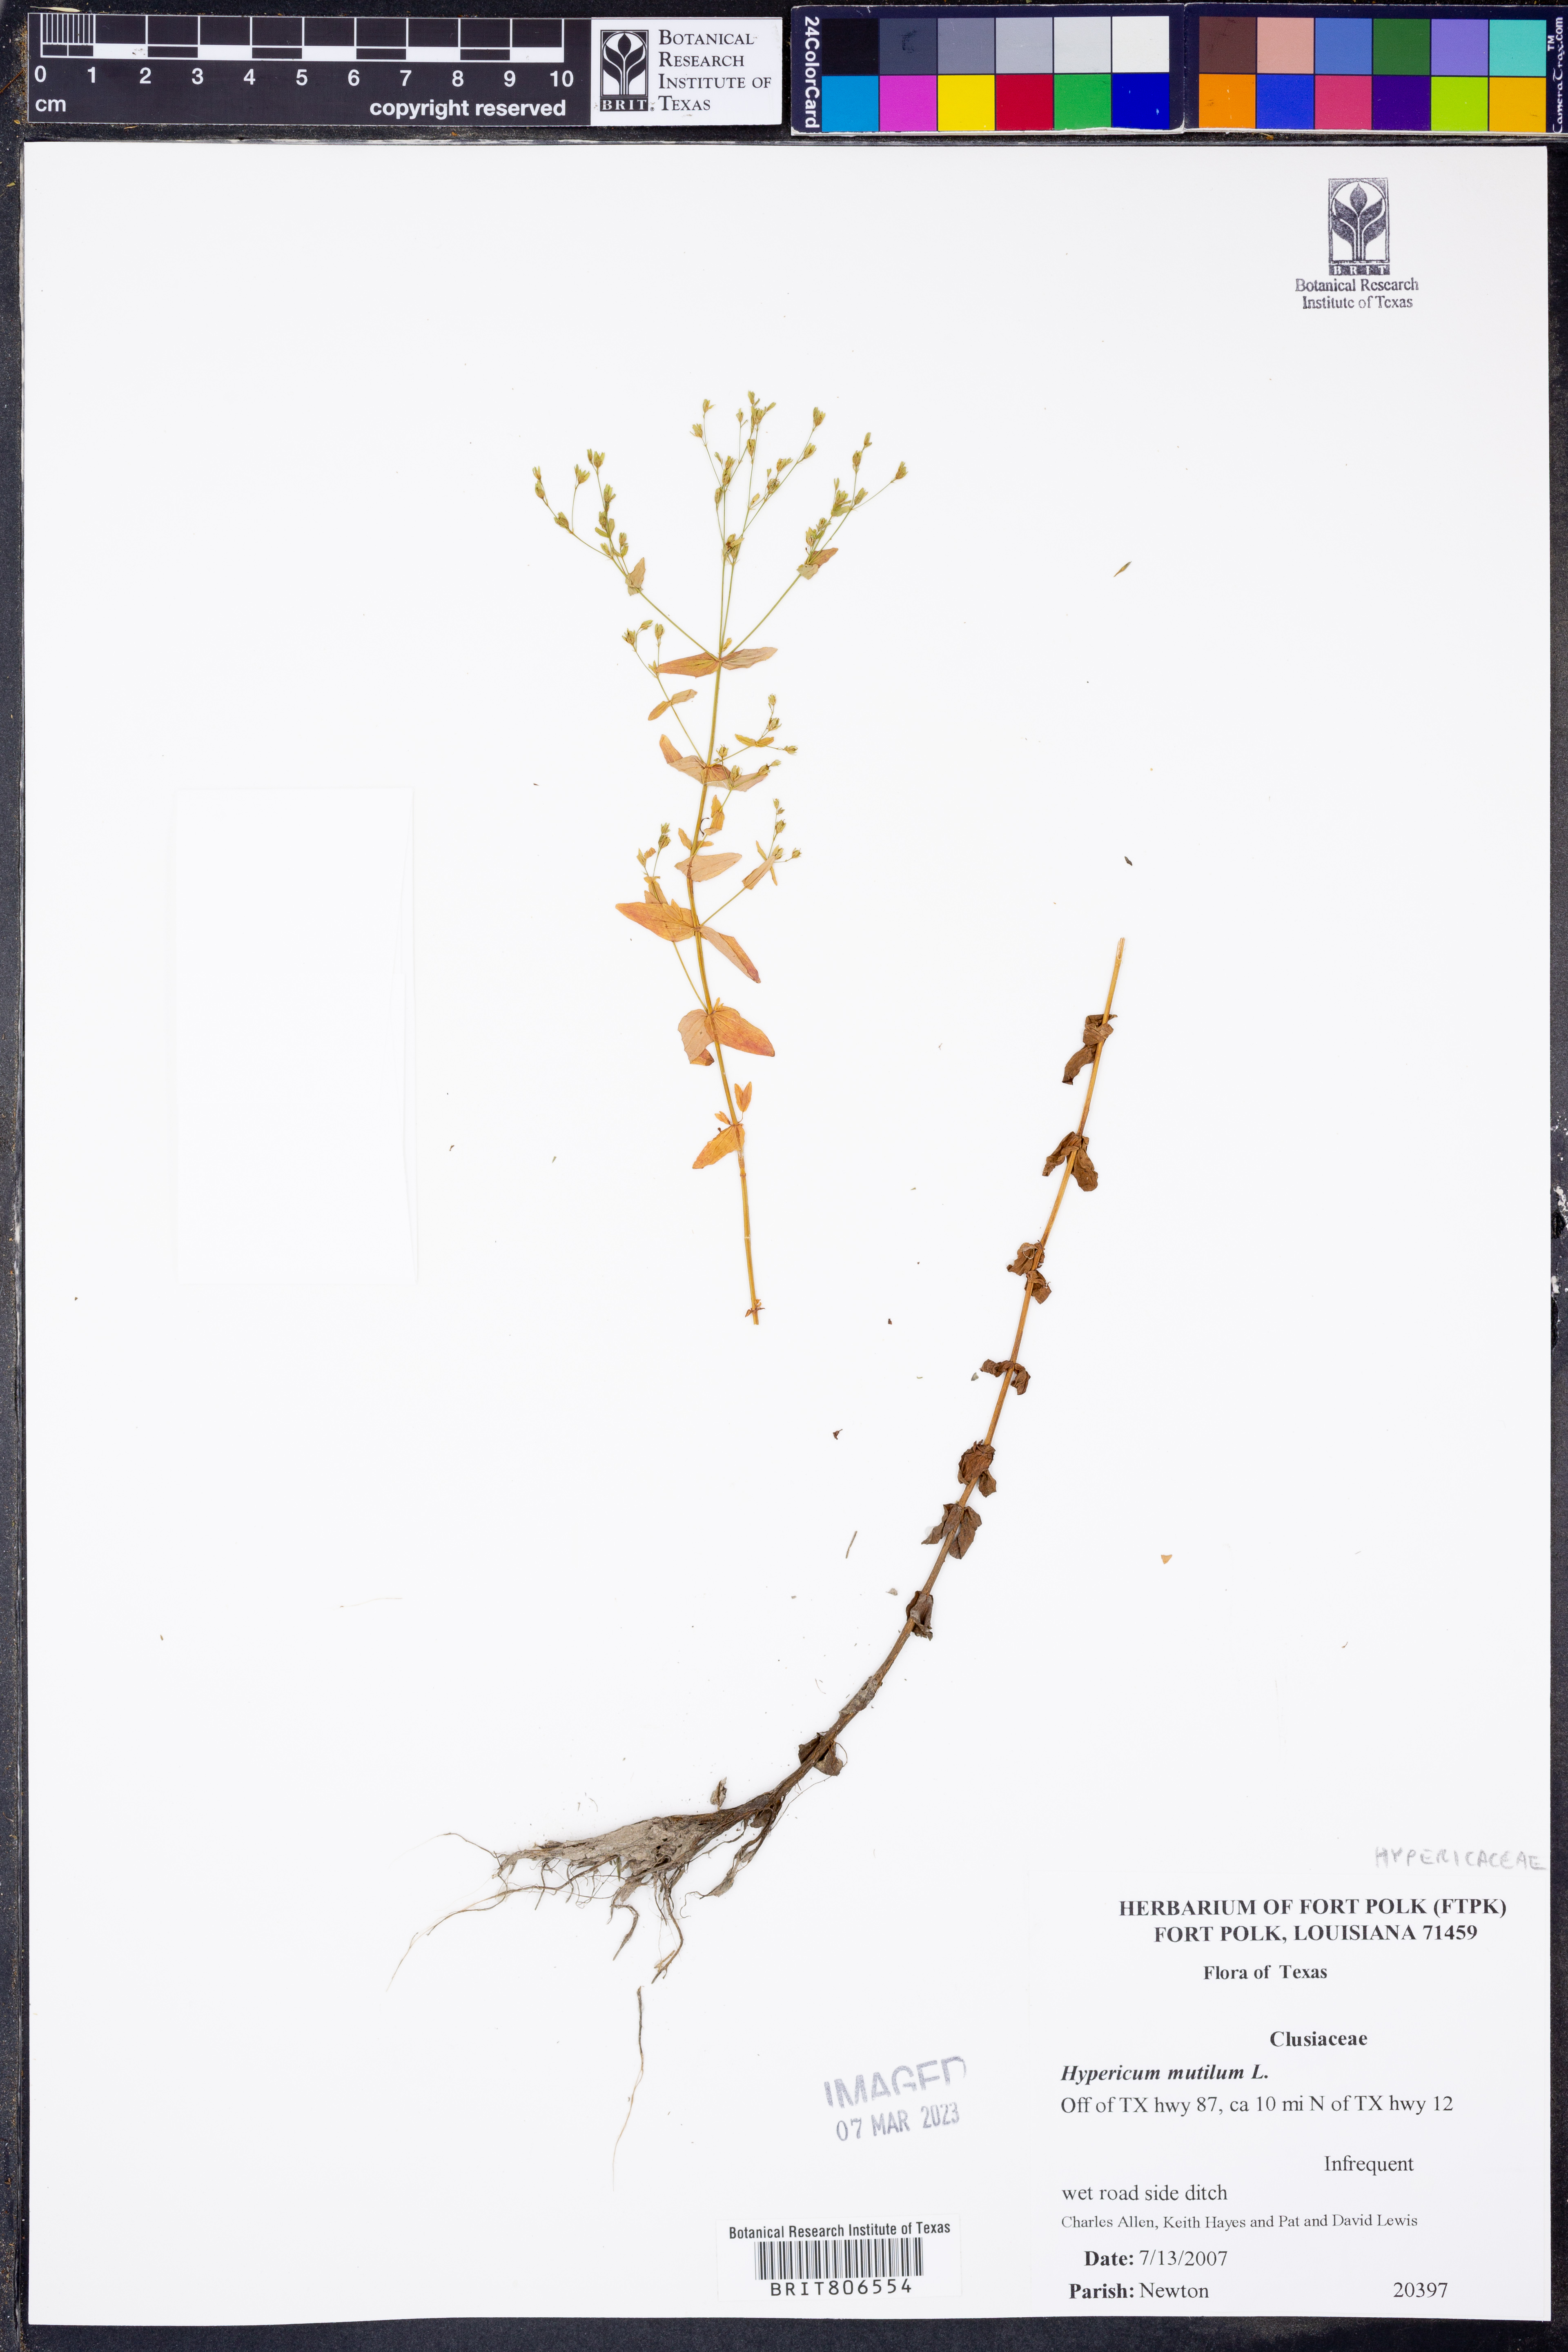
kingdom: Plantae
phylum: Tracheophyta
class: Magnoliopsida
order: Malpighiales
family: Hypericaceae
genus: Hypericum
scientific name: Hypericum mutilum
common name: Dwarf st. john's-wort
